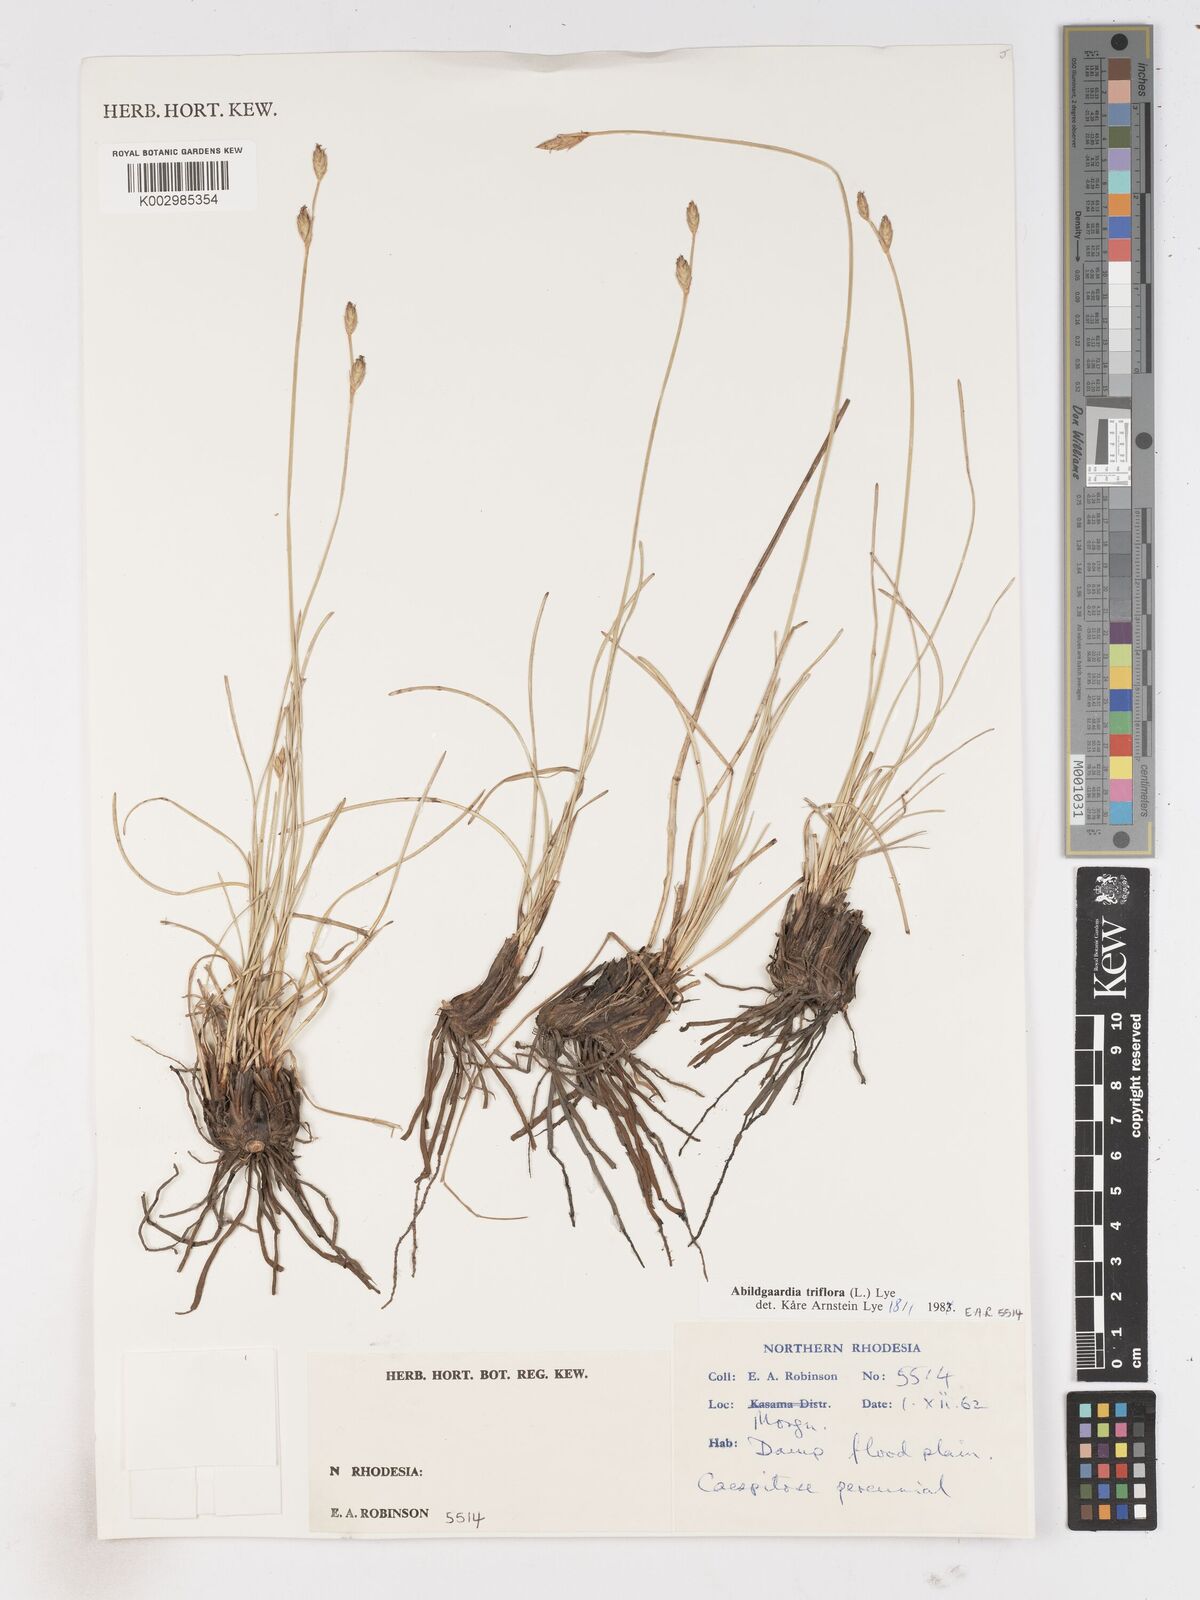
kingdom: Plantae
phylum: Tracheophyta
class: Liliopsida
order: Poales
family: Cyperaceae
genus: Abildgaardia
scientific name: Abildgaardia triflora
